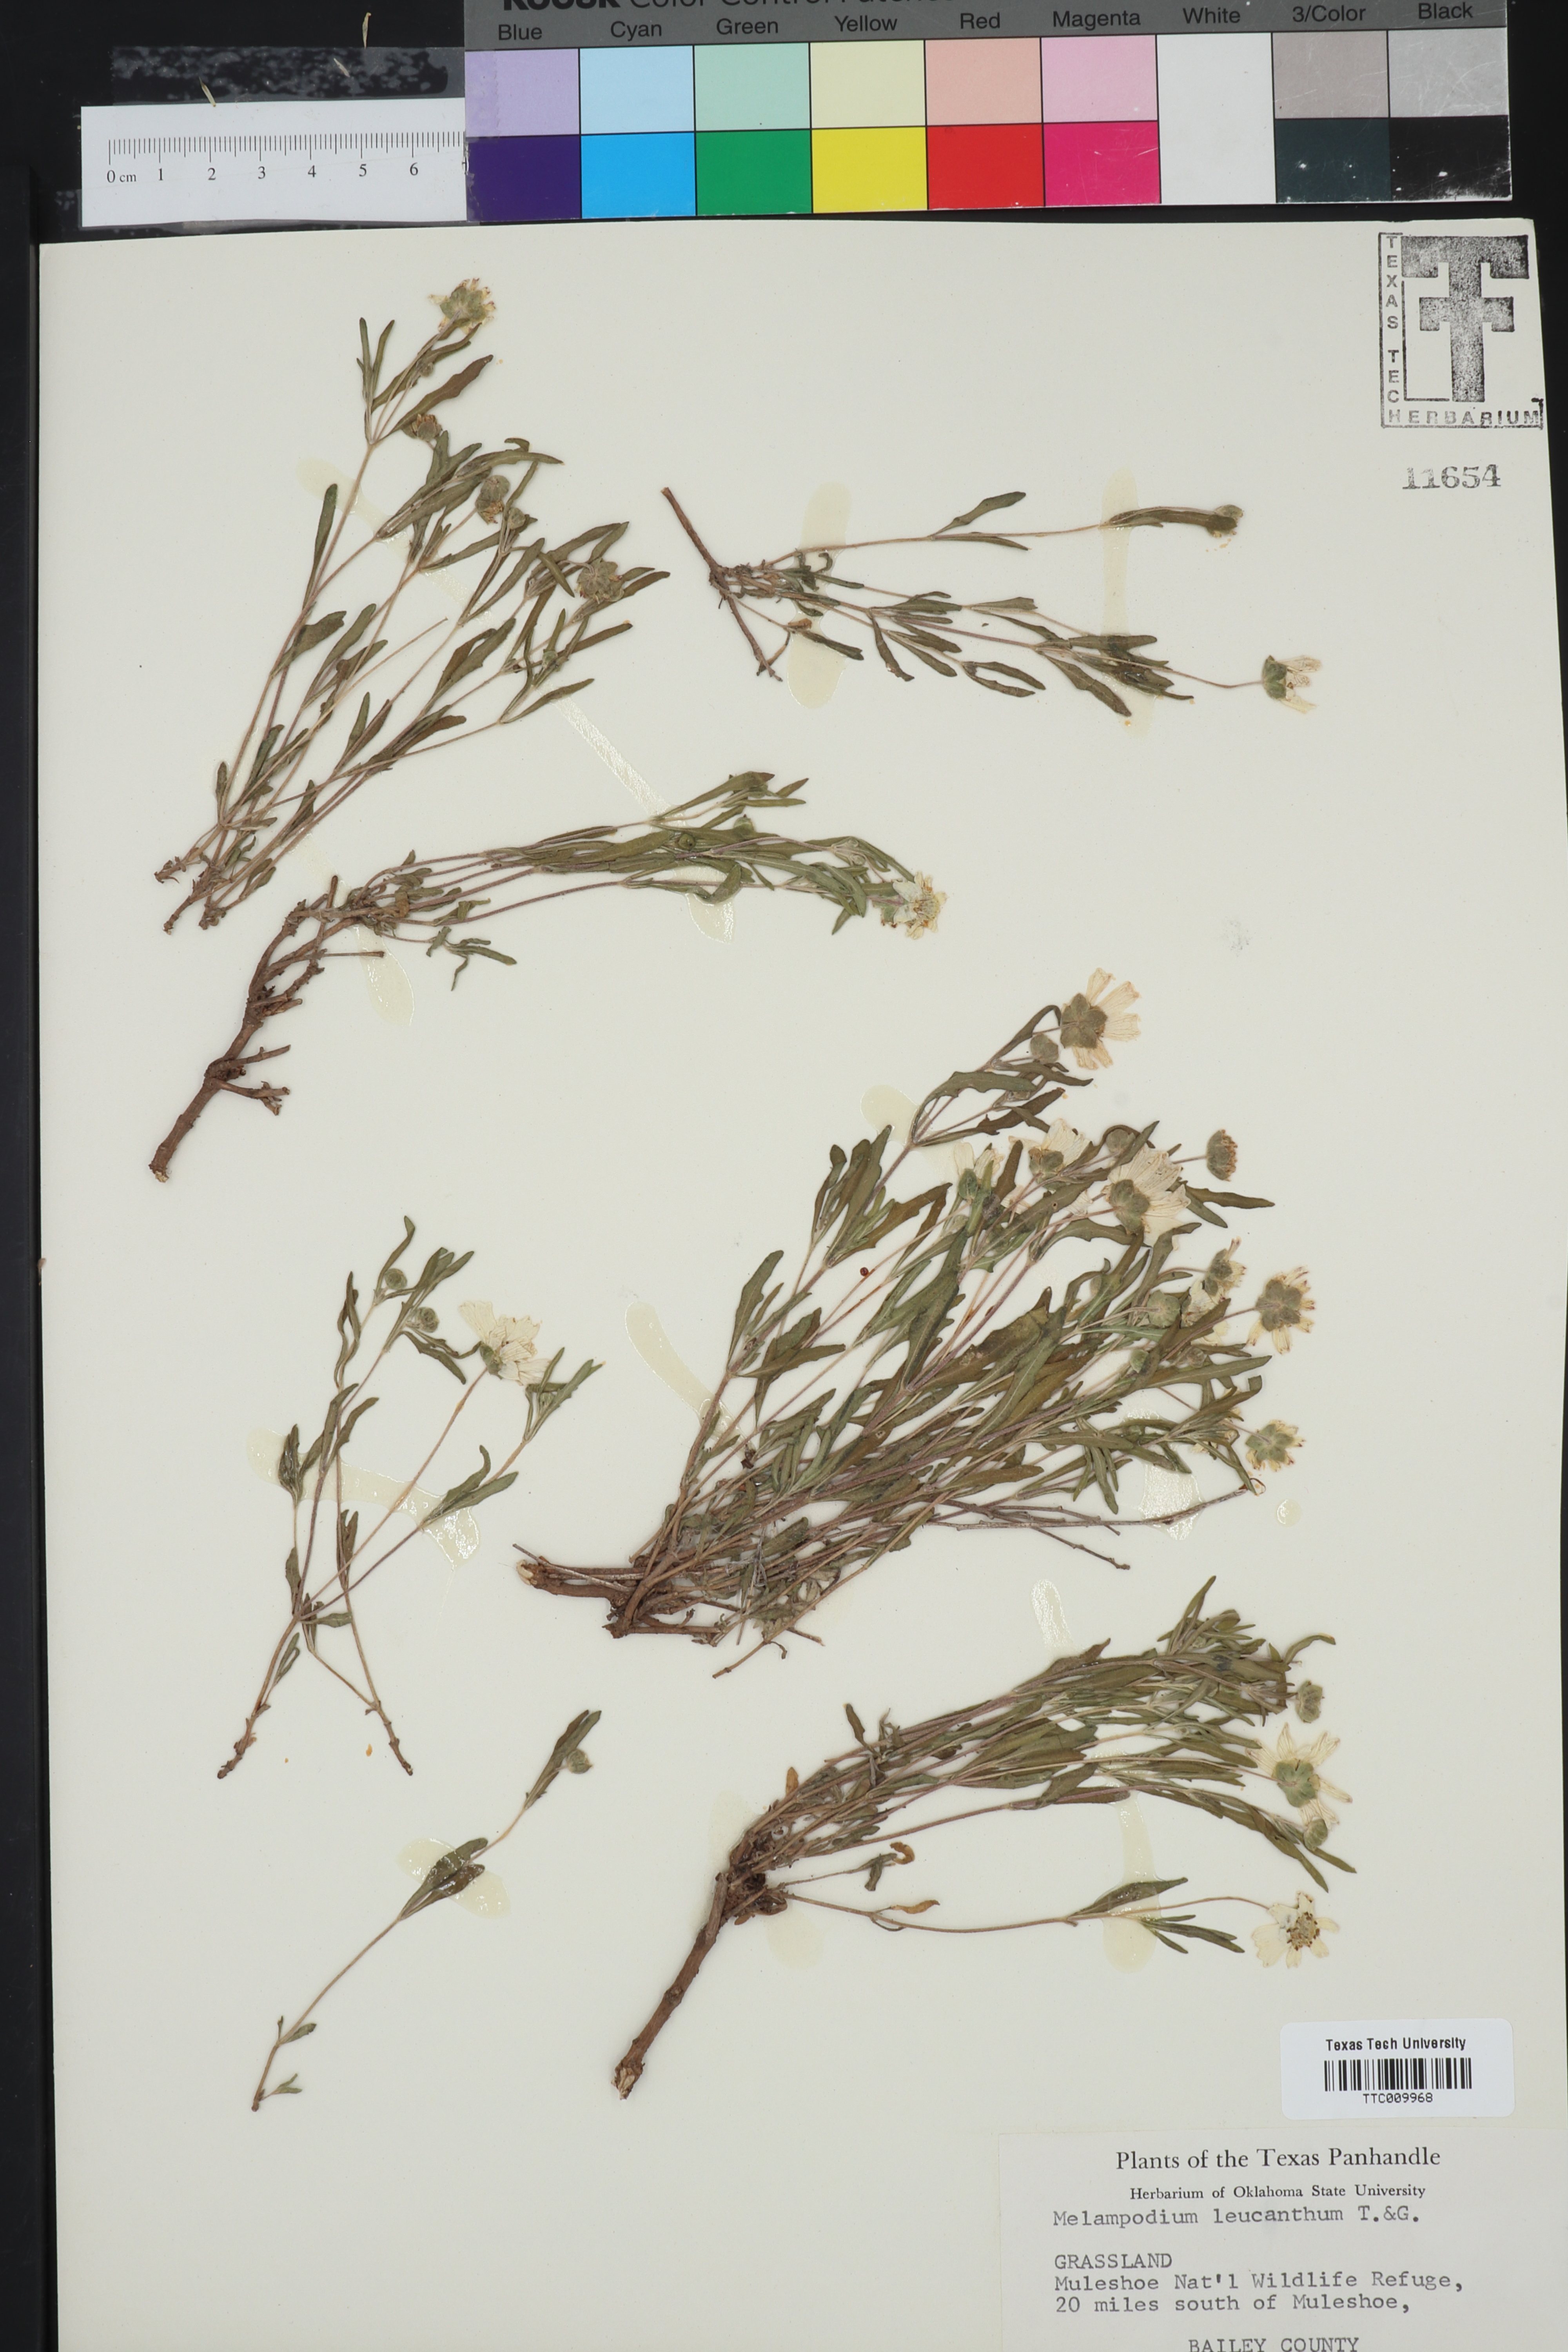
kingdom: Plantae
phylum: Tracheophyta
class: Magnoliopsida
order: Asterales
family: Asteraceae
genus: Melampodium
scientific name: Melampodium leucanthum
